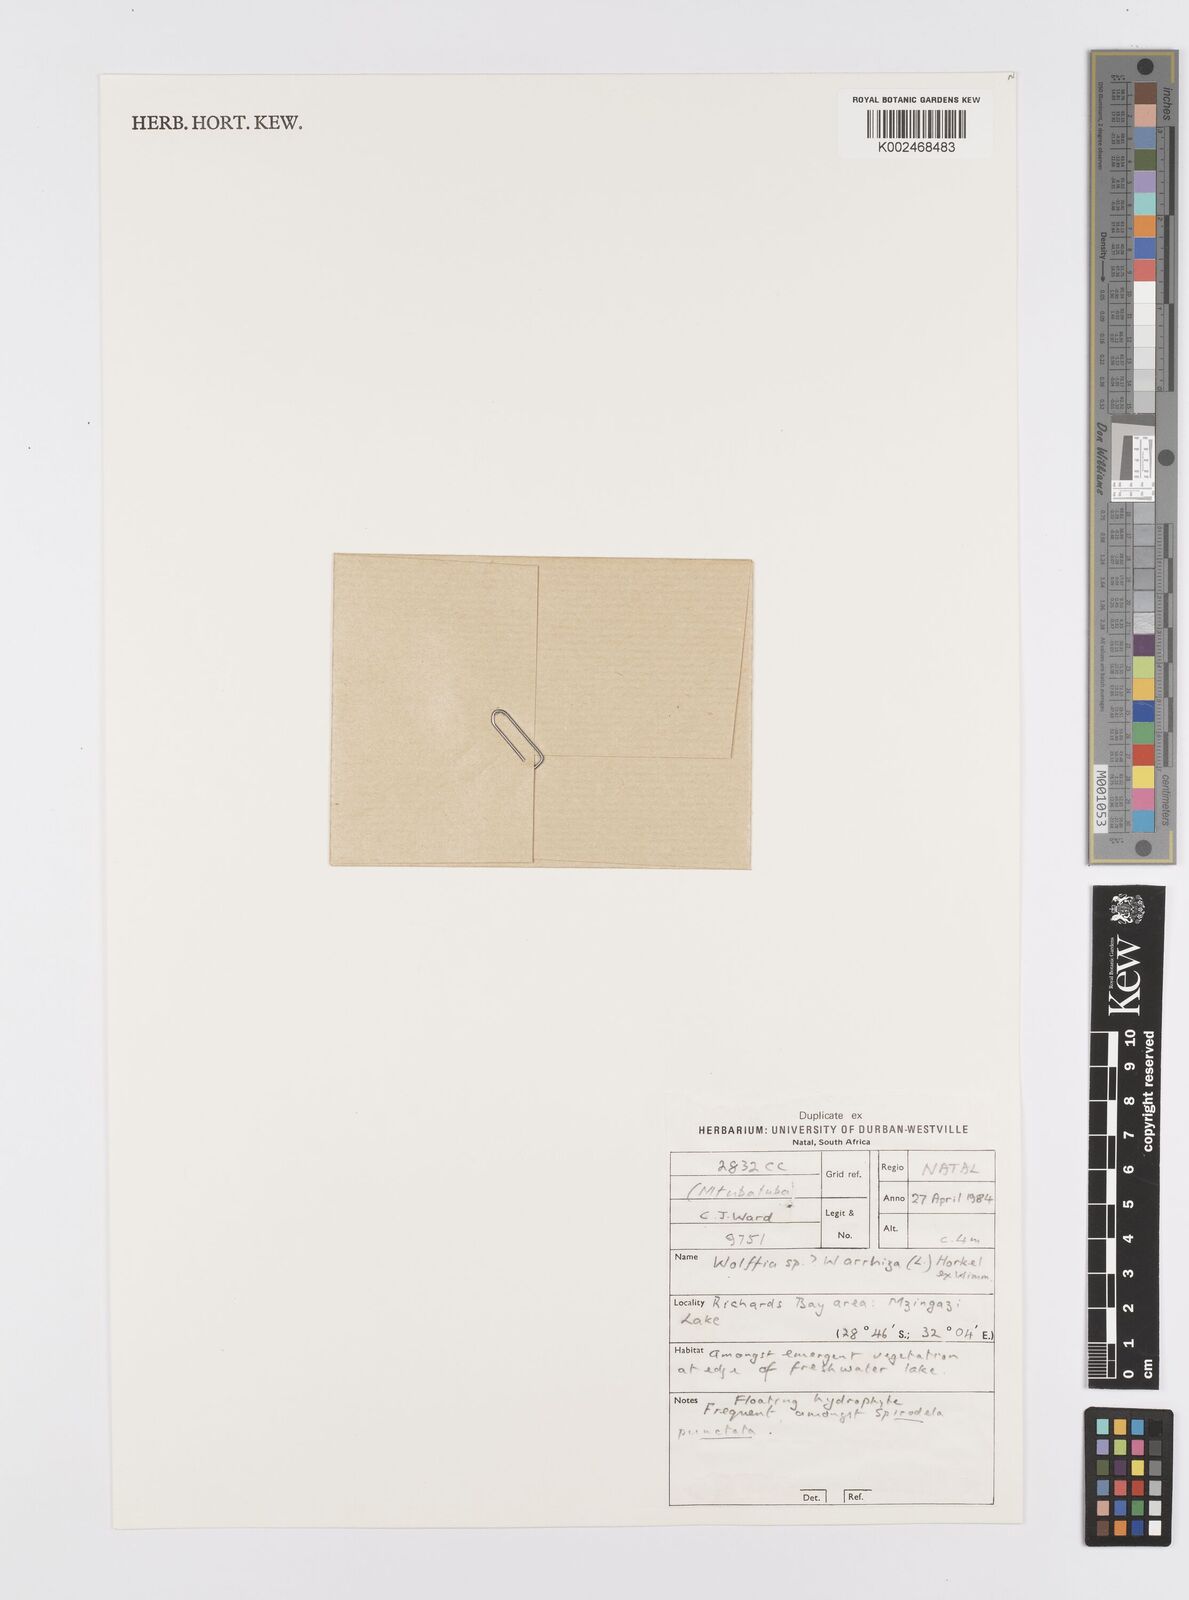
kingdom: Plantae
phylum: Tracheophyta
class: Liliopsida
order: Alismatales
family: Araceae
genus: Wolffia
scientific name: Wolffia arrhiza
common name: Rootless duckweed
